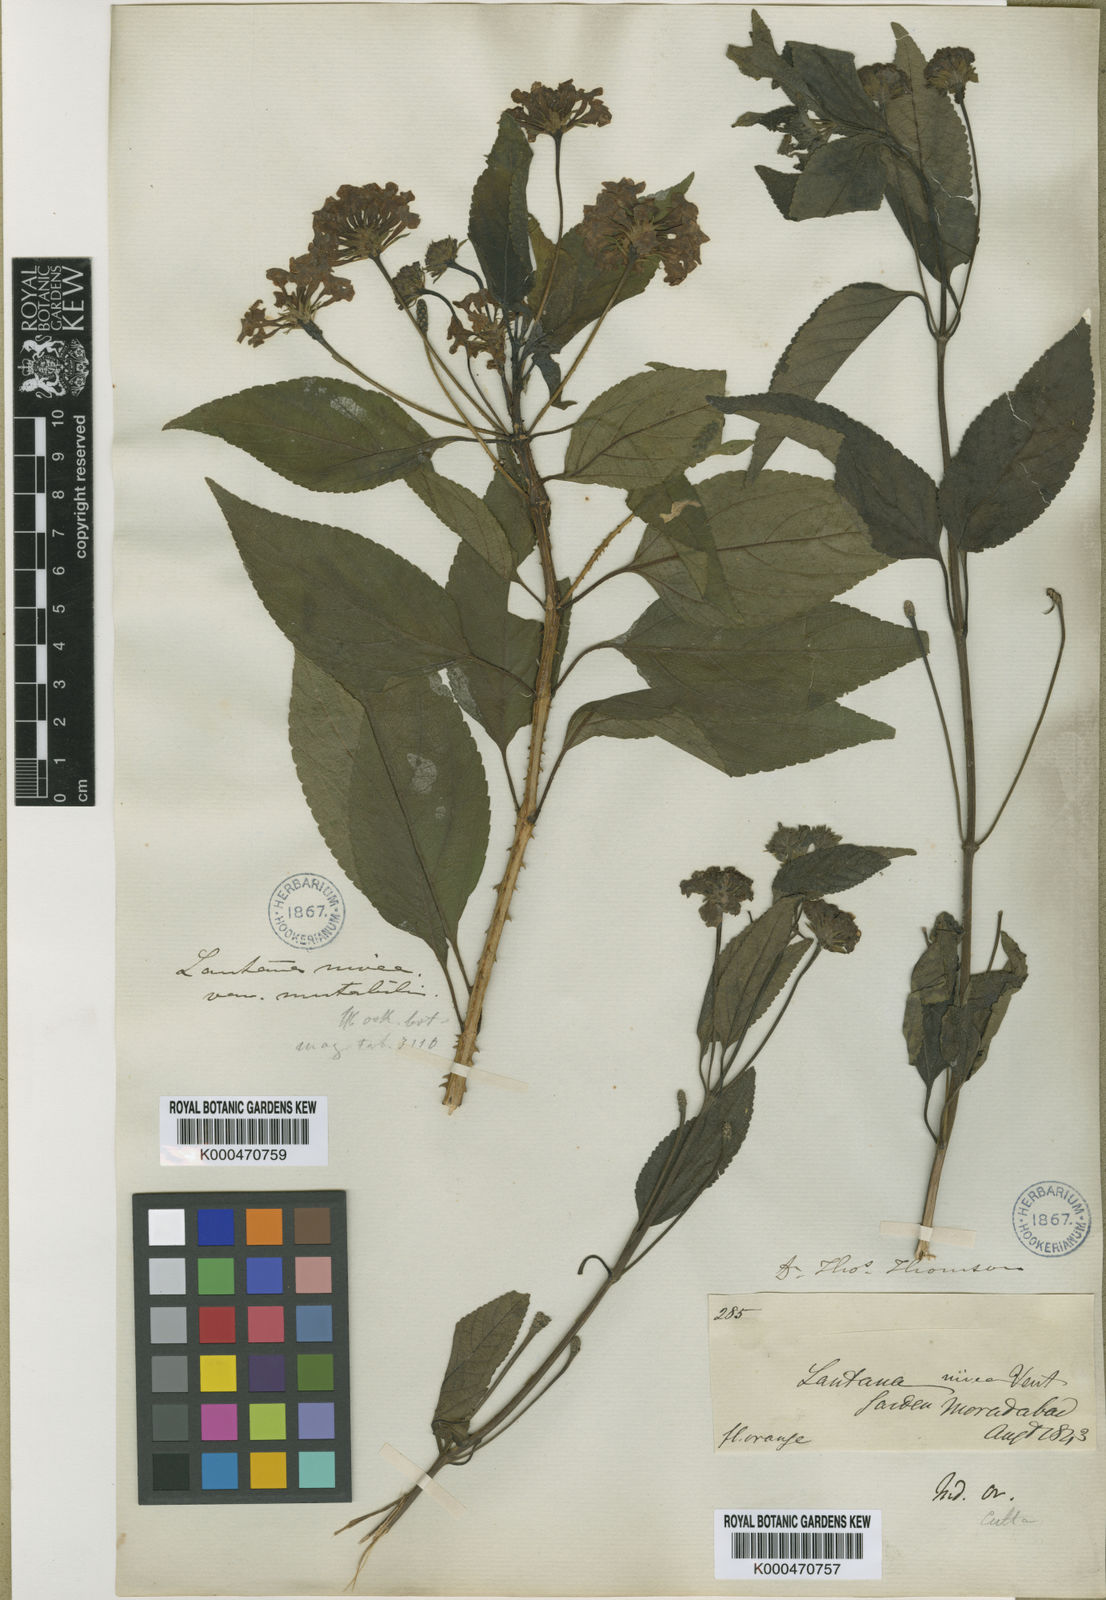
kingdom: Plantae
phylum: Tracheophyta
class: Magnoliopsida
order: Lamiales
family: Verbenaceae
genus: Lantana
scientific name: Lantana nivea
